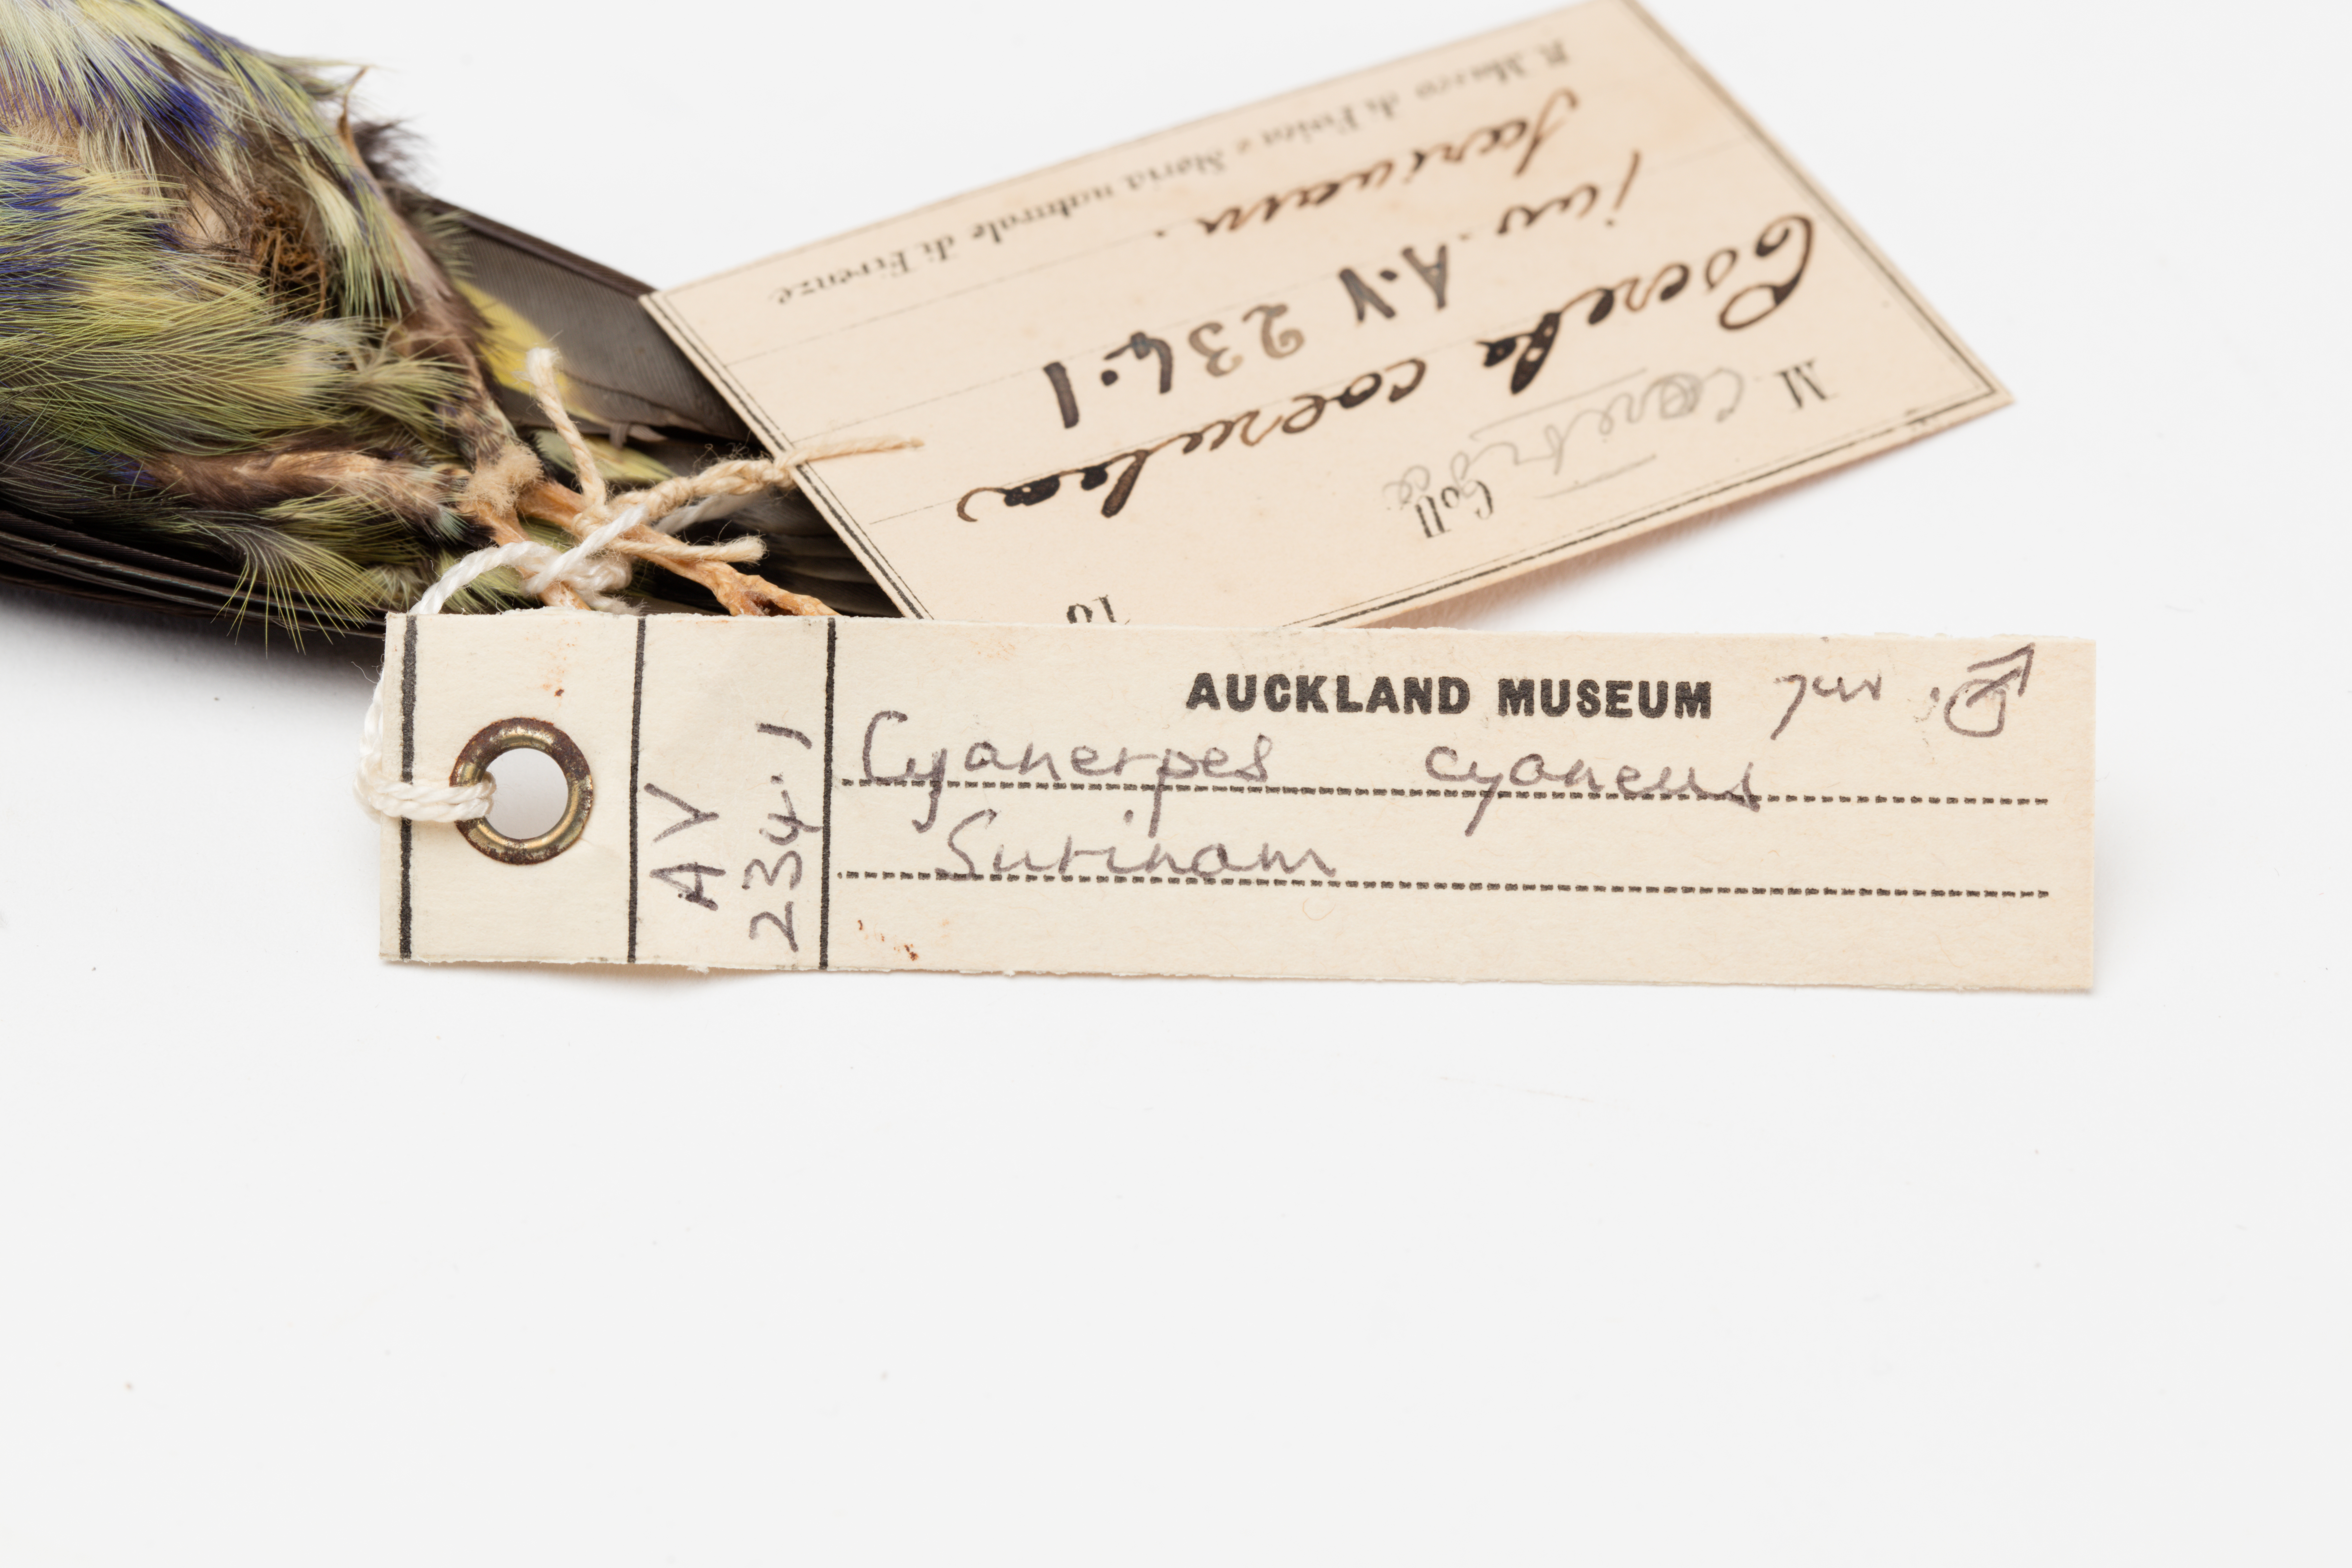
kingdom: Animalia
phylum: Chordata
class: Aves
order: Passeriformes
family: Thraupidae
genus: Cyanerpes
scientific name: Cyanerpes cyaneus
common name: Red-legged honeycreeper
